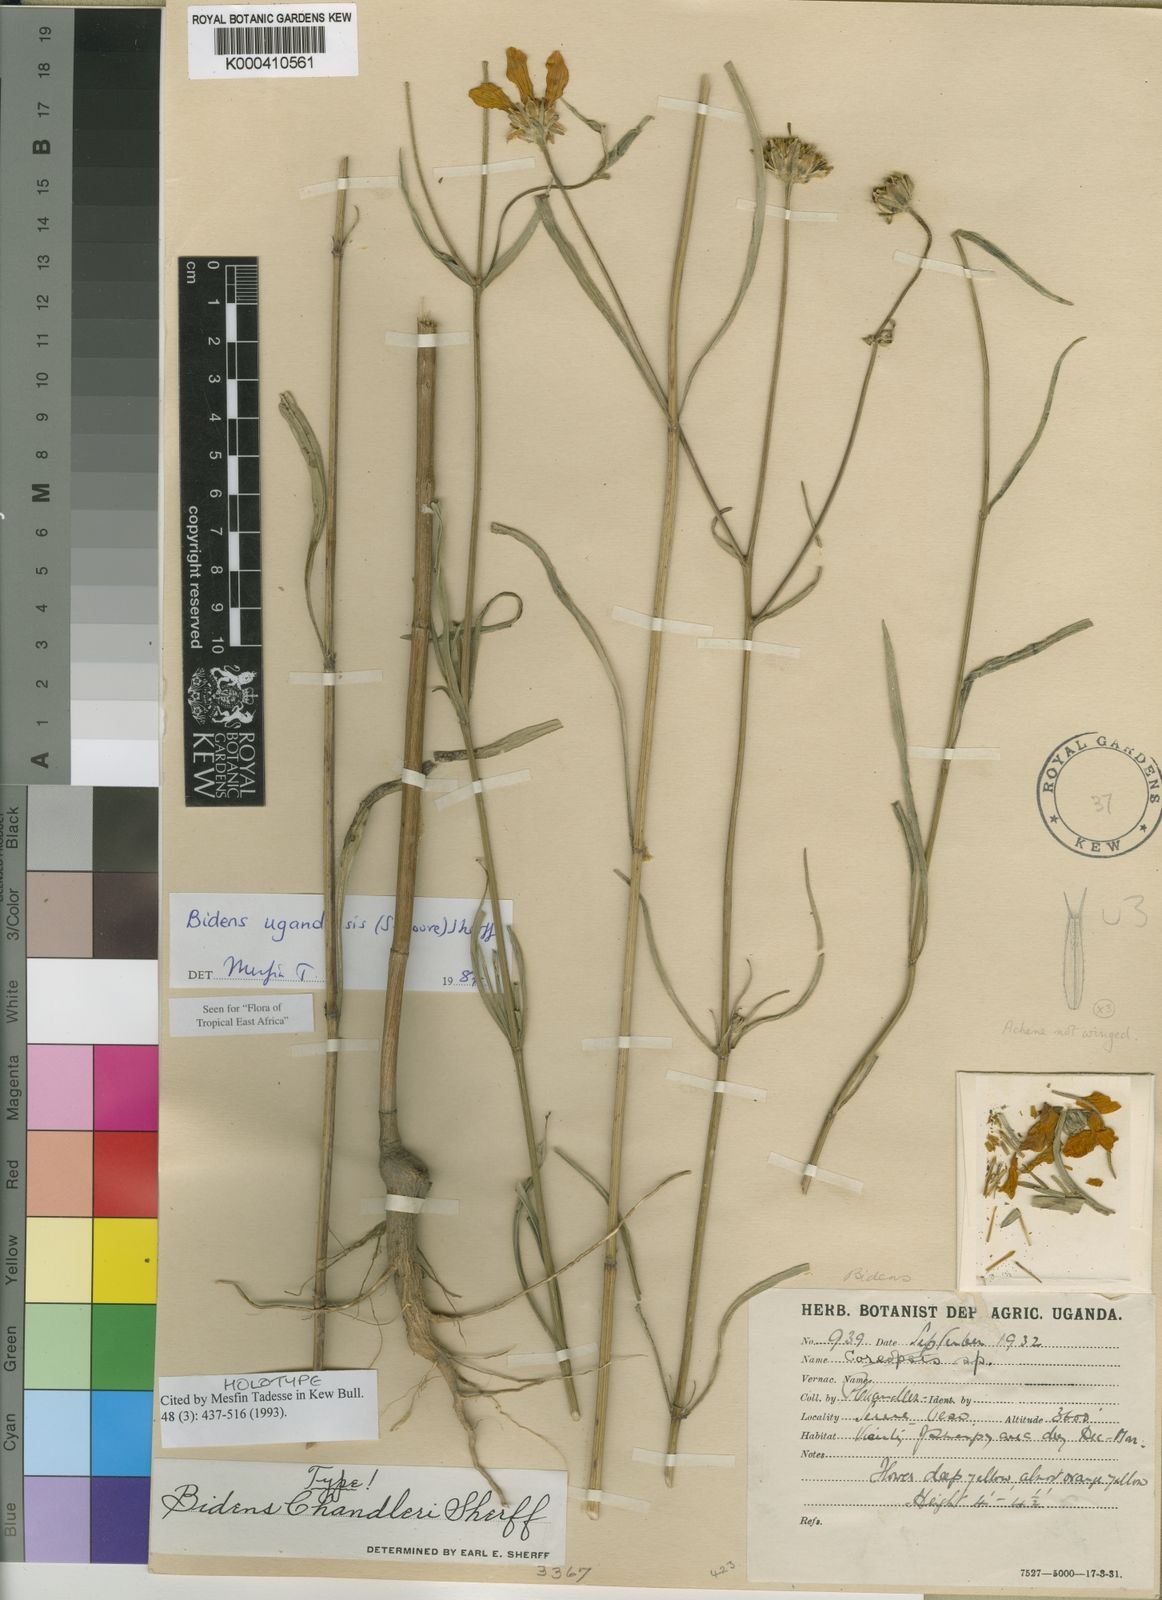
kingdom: Plantae
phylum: Tracheophyta
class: Magnoliopsida
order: Asterales
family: Asteraceae
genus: Bidens
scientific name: Bidens ugandensis
